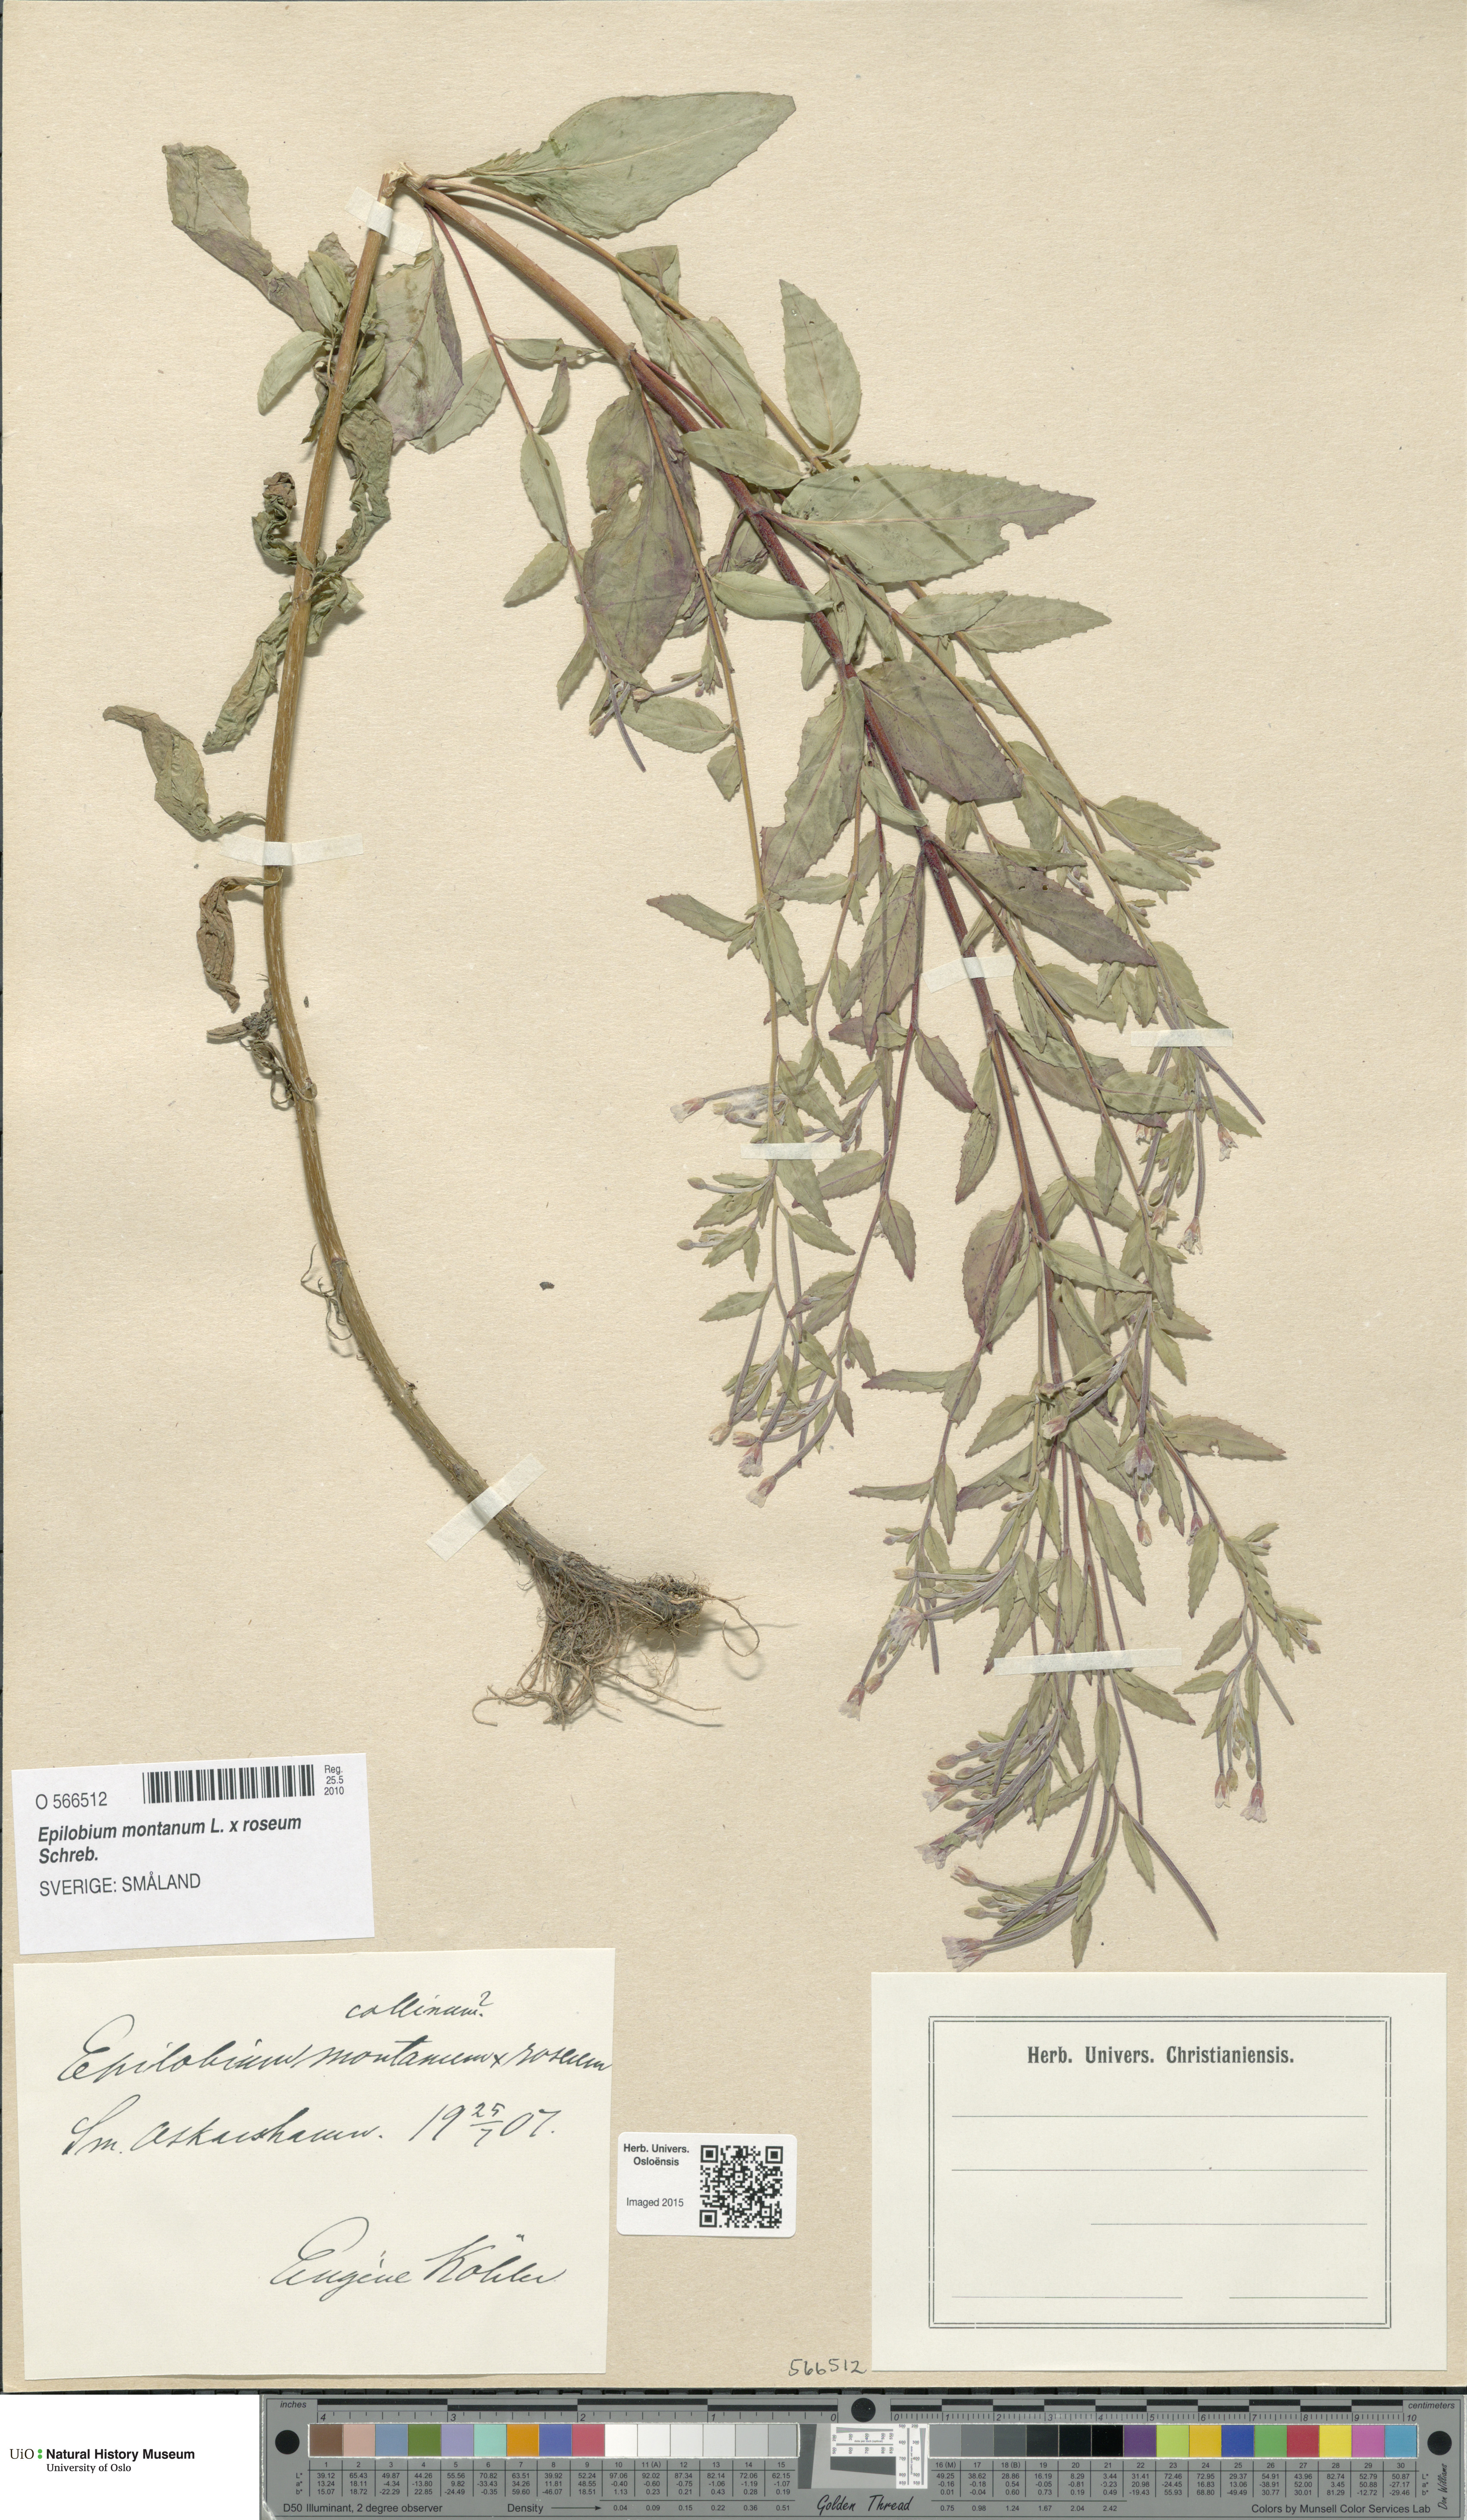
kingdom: Plantae
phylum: Tracheophyta
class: Magnoliopsida
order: Myrtales
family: Onagraceae
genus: Epilobium
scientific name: Epilobium
